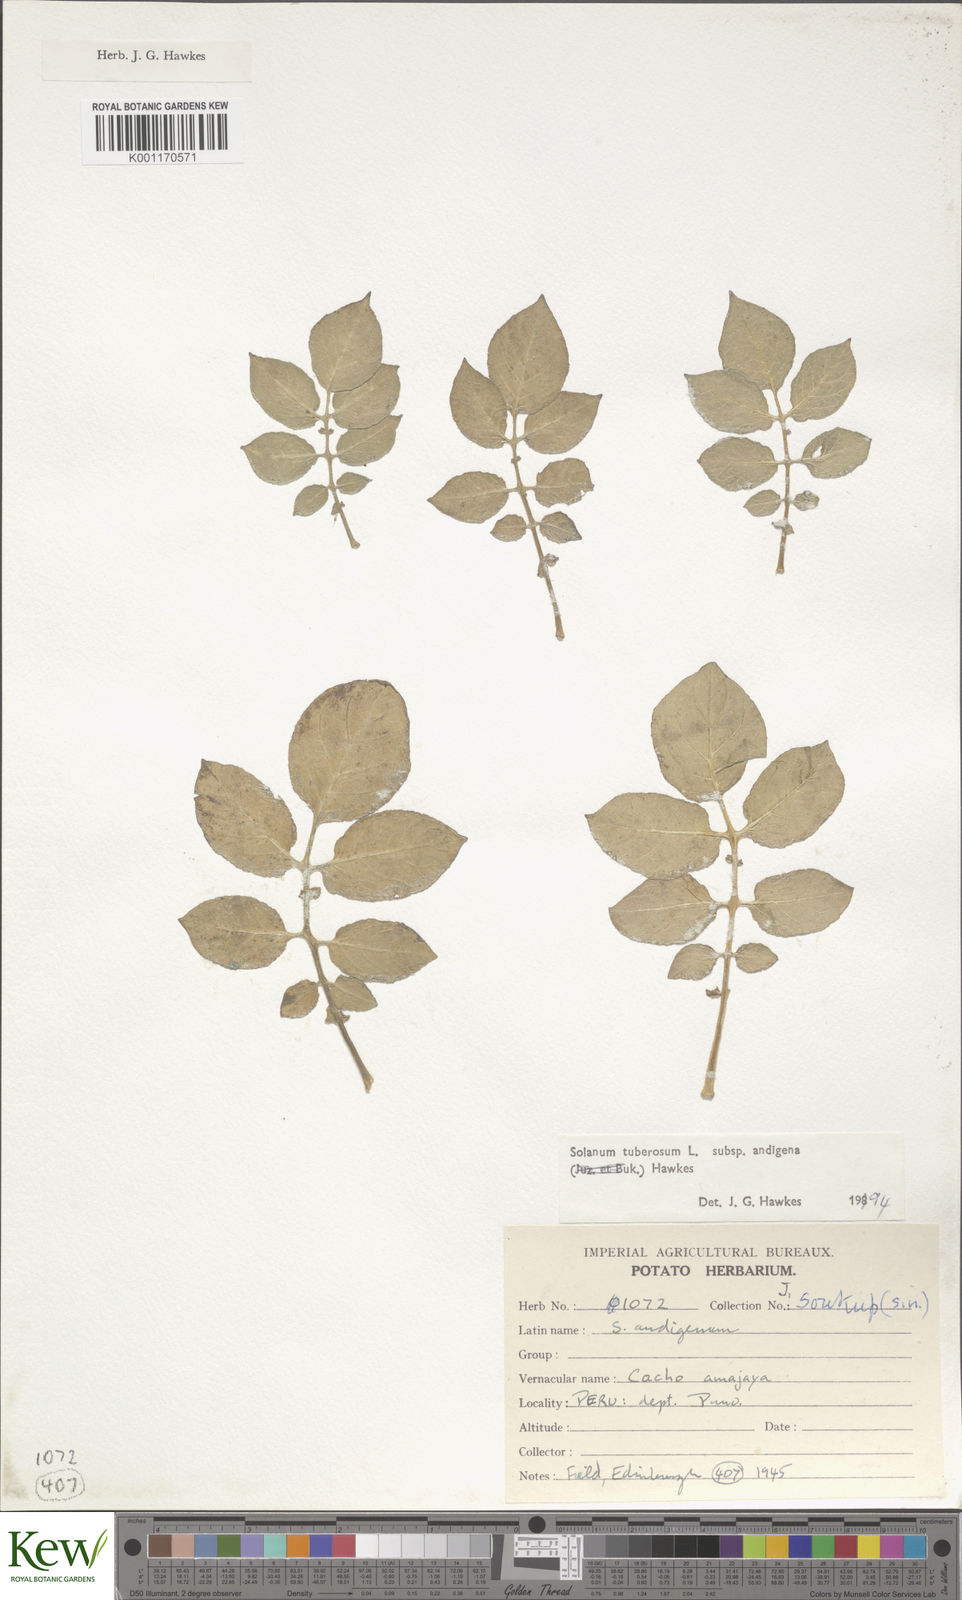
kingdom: Plantae
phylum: Tracheophyta
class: Magnoliopsida
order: Solanales
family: Solanaceae
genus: Solanum
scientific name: Solanum tuberosum
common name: Potato
